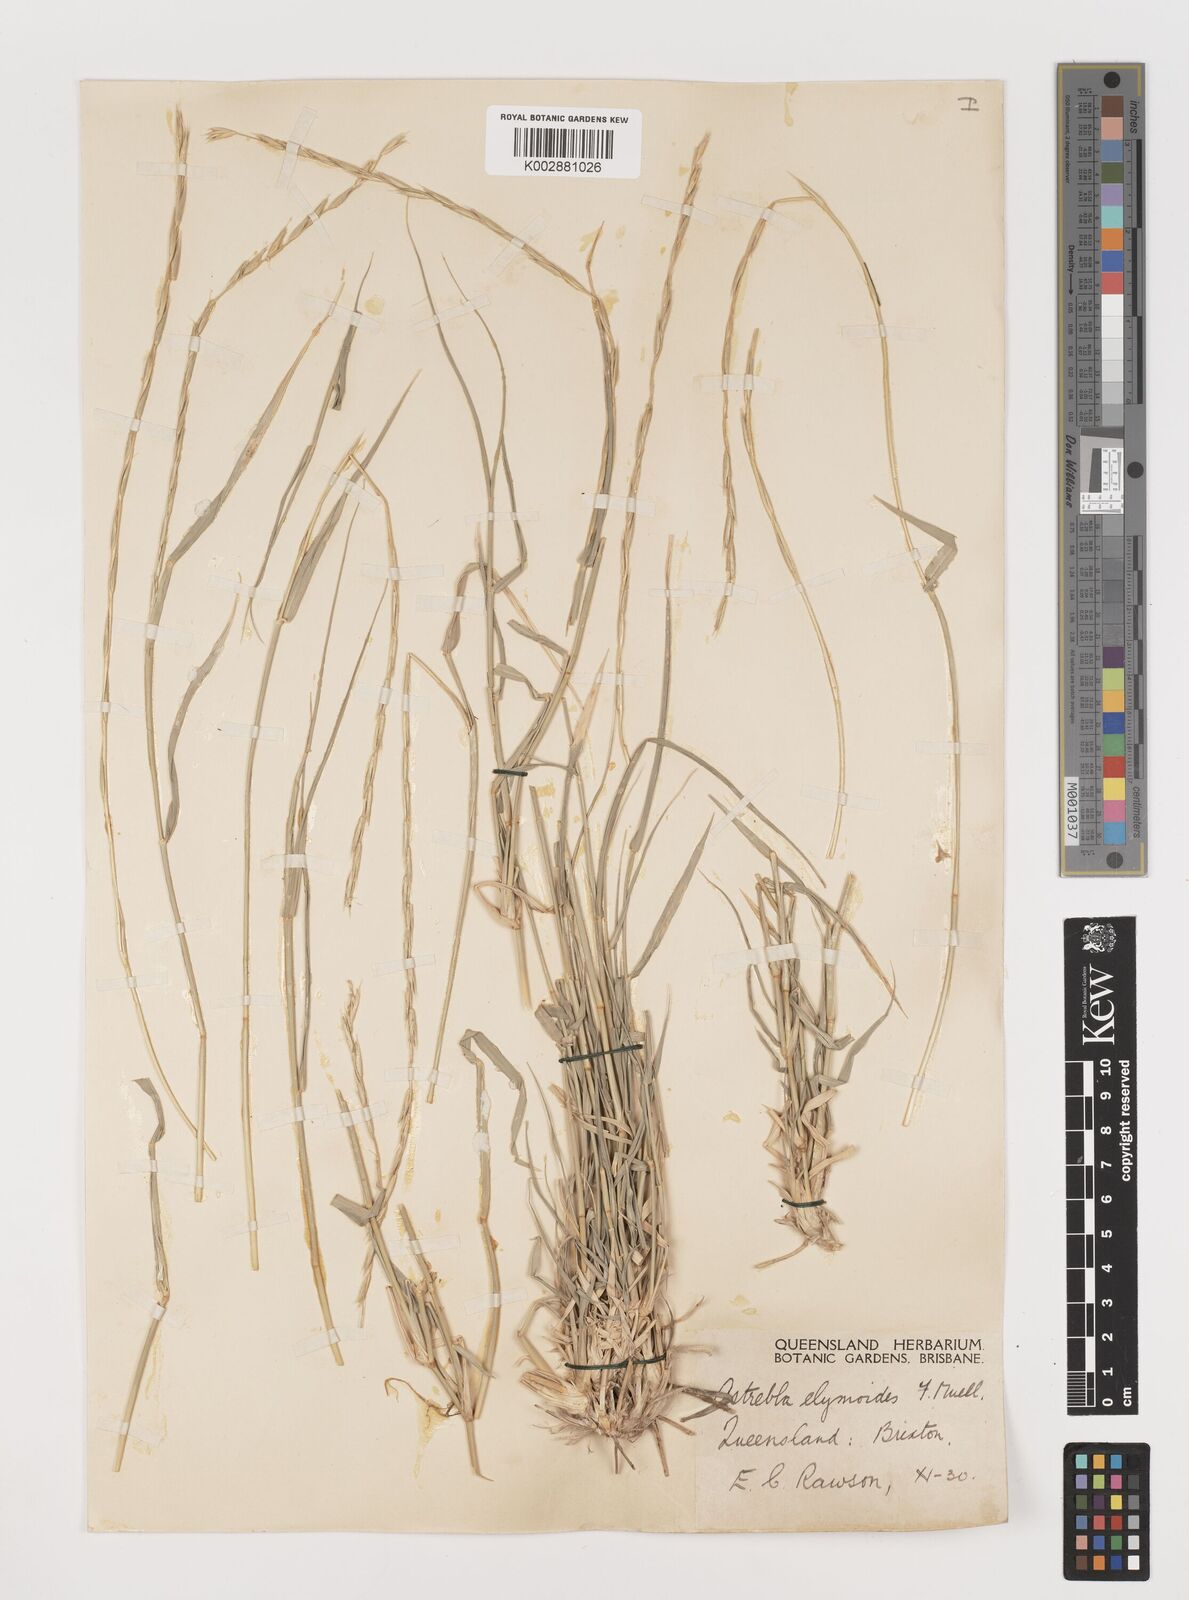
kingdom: Plantae
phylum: Tracheophyta
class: Liliopsida
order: Poales
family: Poaceae
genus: Astrebla
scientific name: Astrebla elymoides
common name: Hoop mitchell grass
